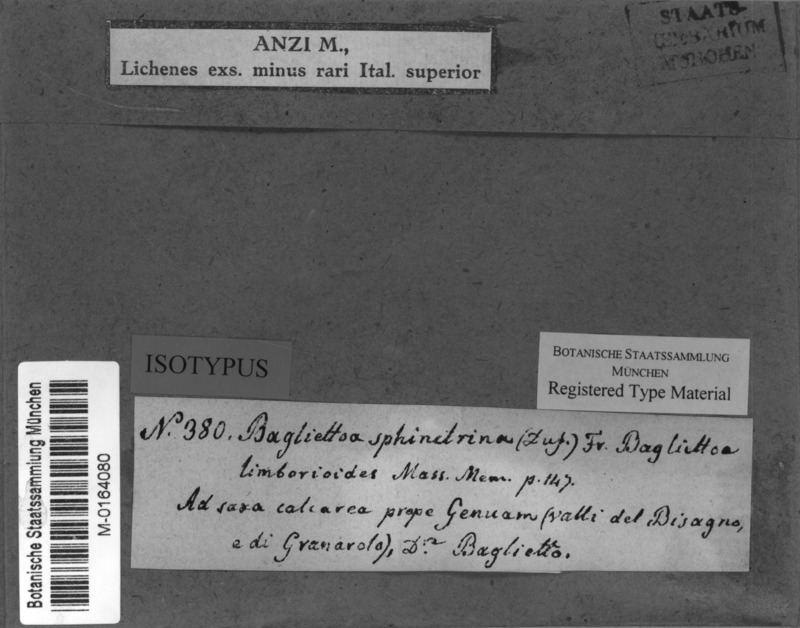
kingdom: Fungi
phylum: Ascomycota
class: Eurotiomycetes
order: Verrucariales
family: Verrucariaceae
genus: Bagliettoa
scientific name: Bagliettoa limborioides
